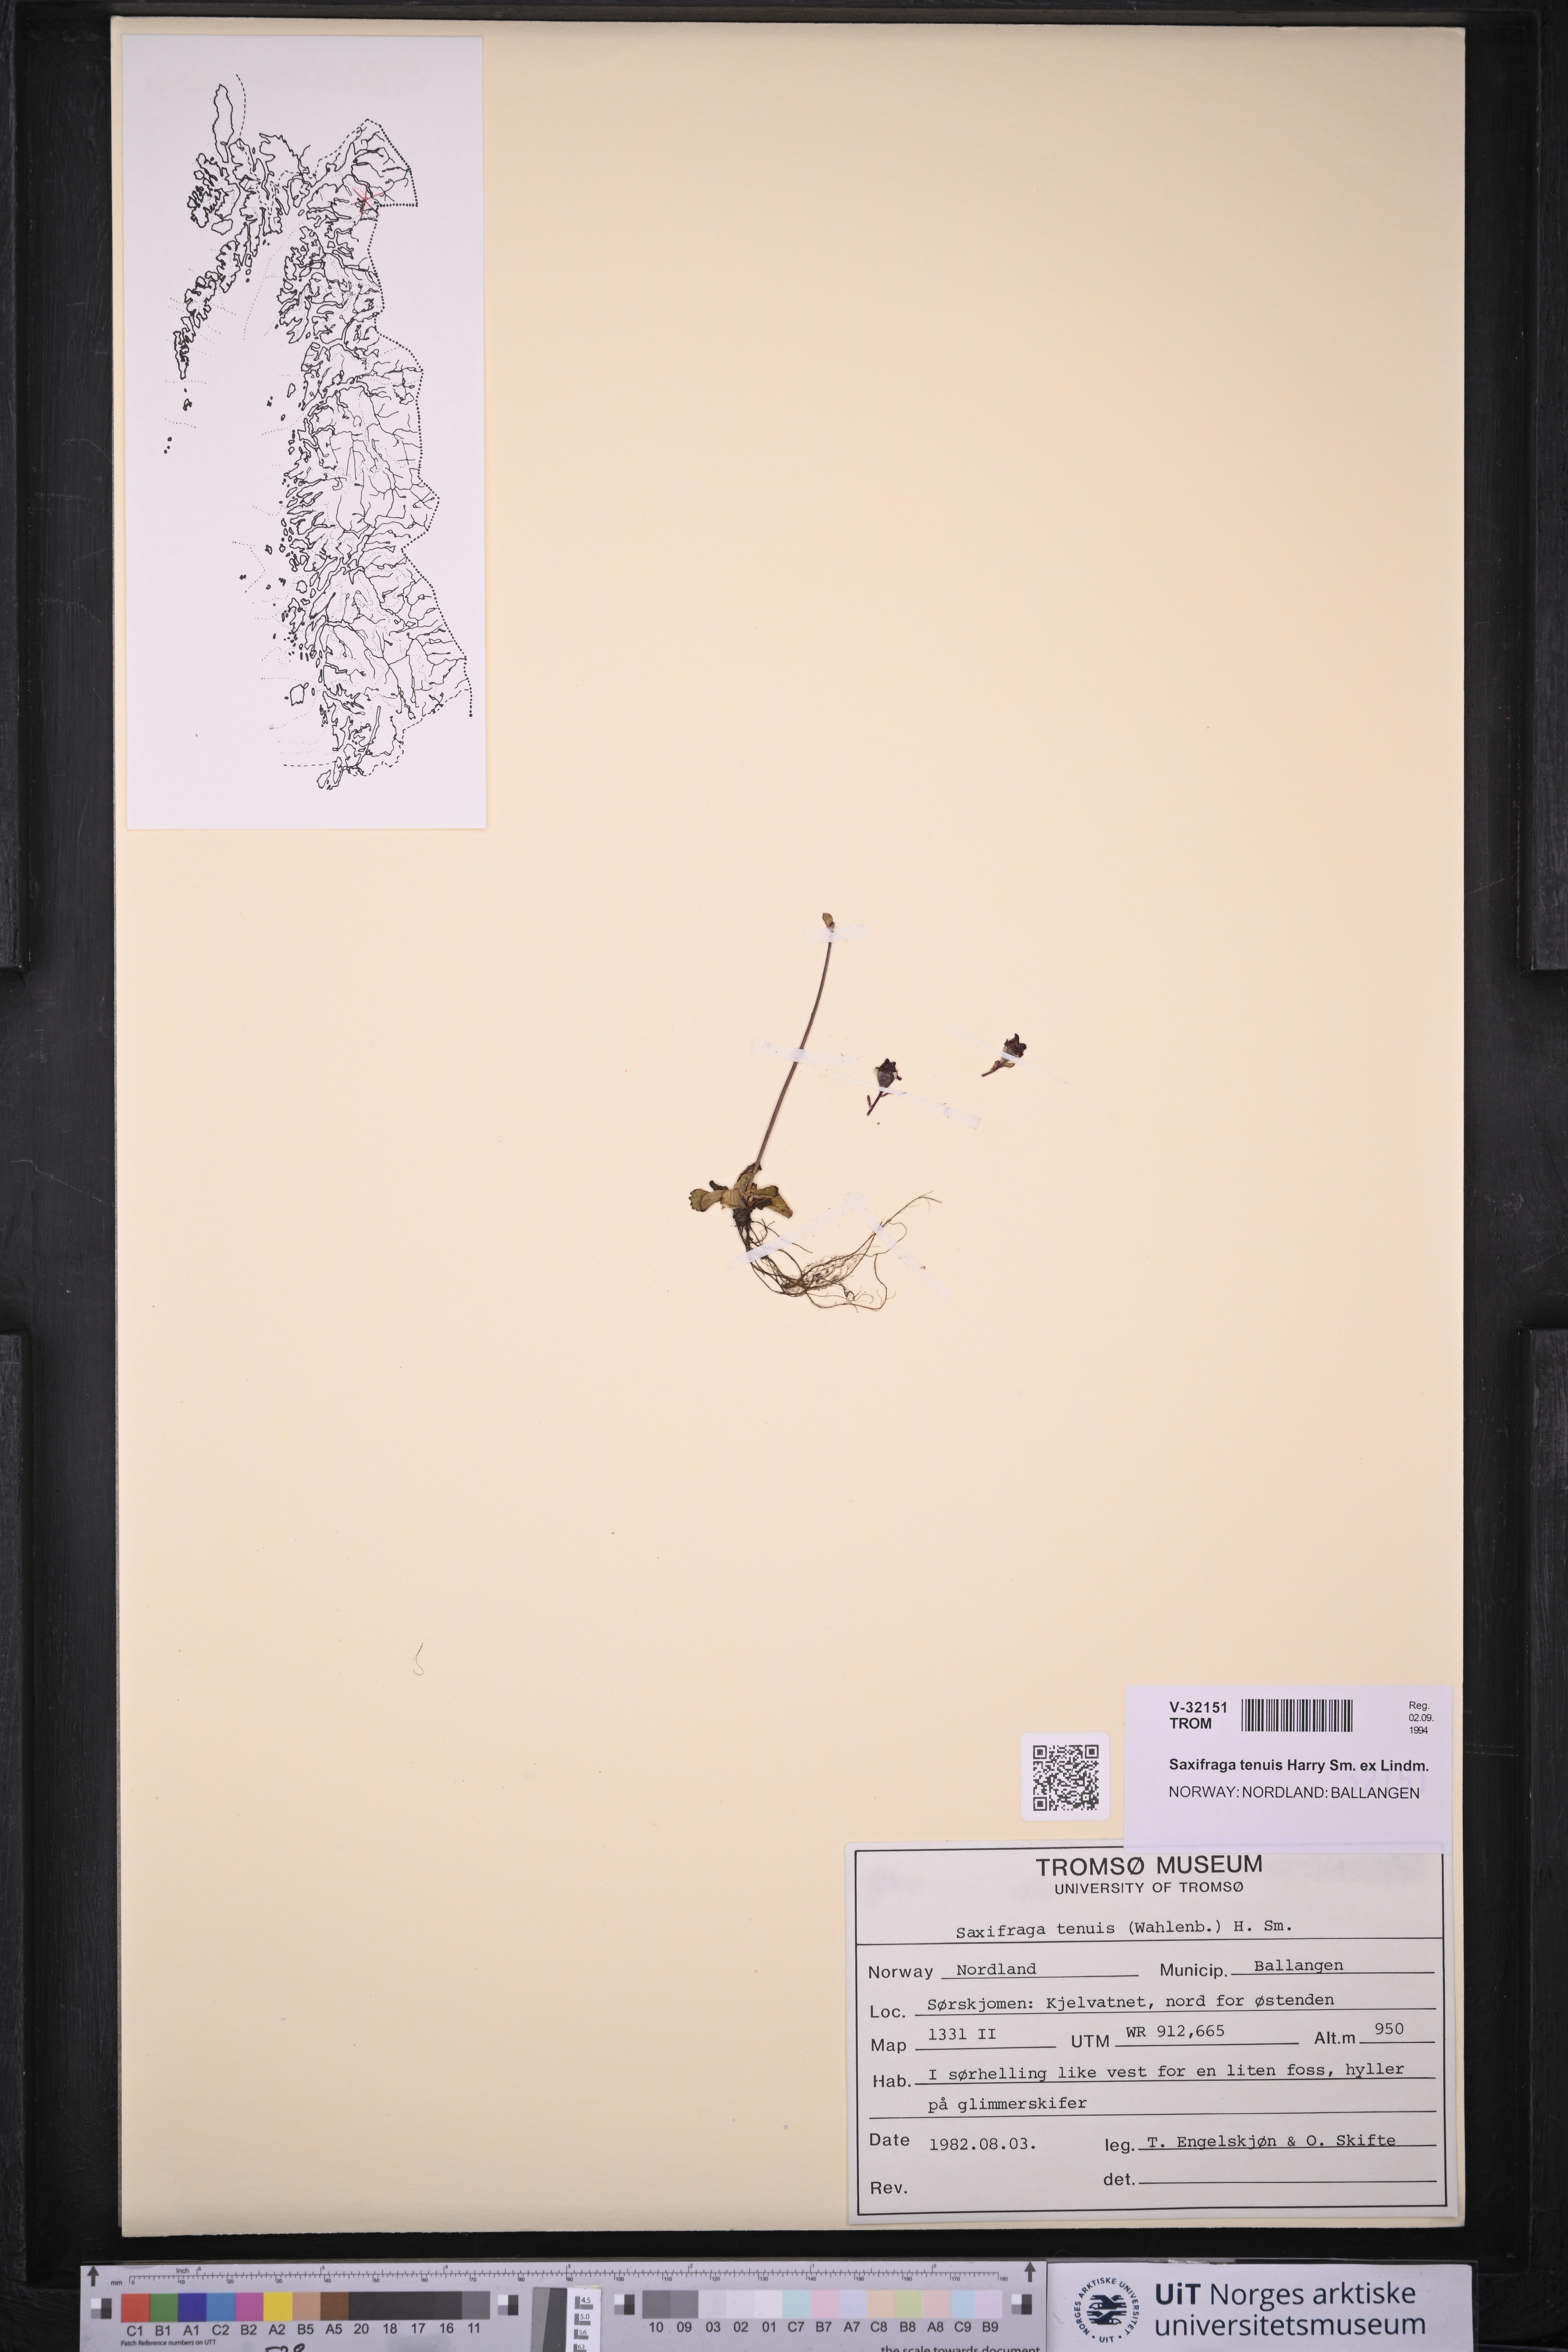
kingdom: Plantae
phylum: Tracheophyta
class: Magnoliopsida
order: Saxifragales
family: Saxifragaceae
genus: Micranthes
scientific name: Micranthes tenuis
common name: Ottertail pass saxifrage
